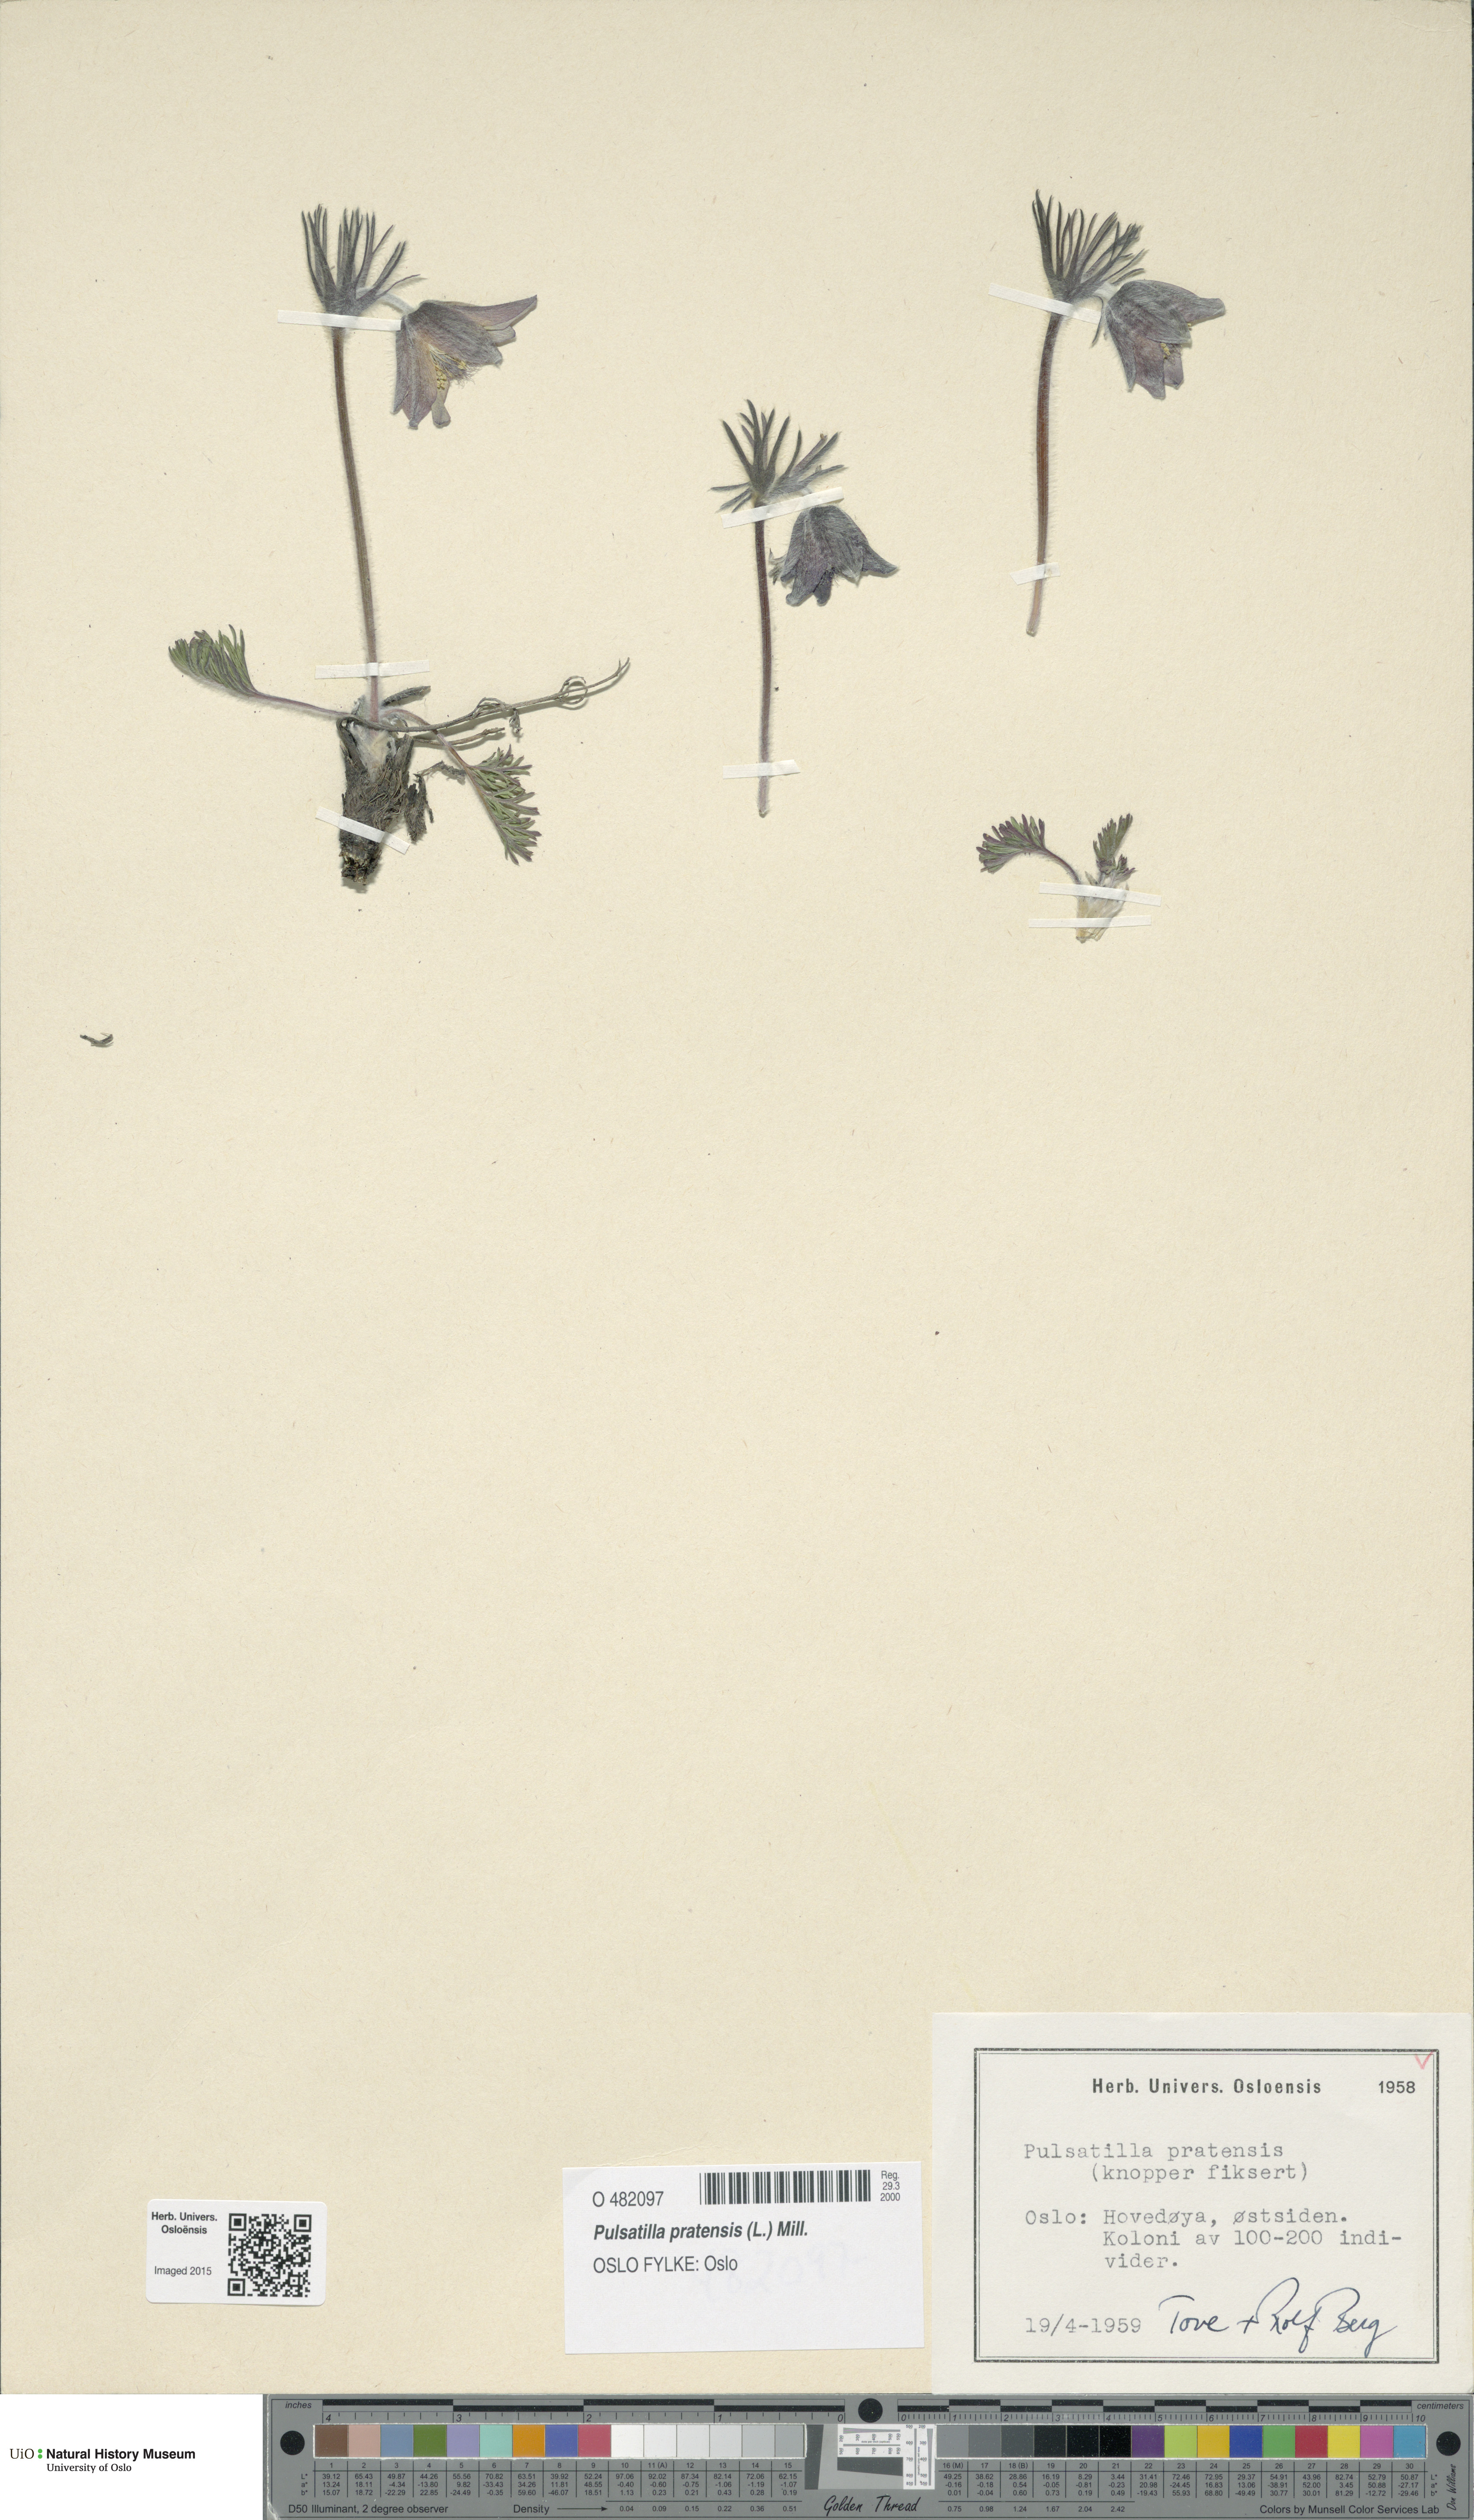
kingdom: Plantae
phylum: Tracheophyta
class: Magnoliopsida
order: Ranunculales
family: Ranunculaceae
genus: Pulsatilla
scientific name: Pulsatilla pratensis
